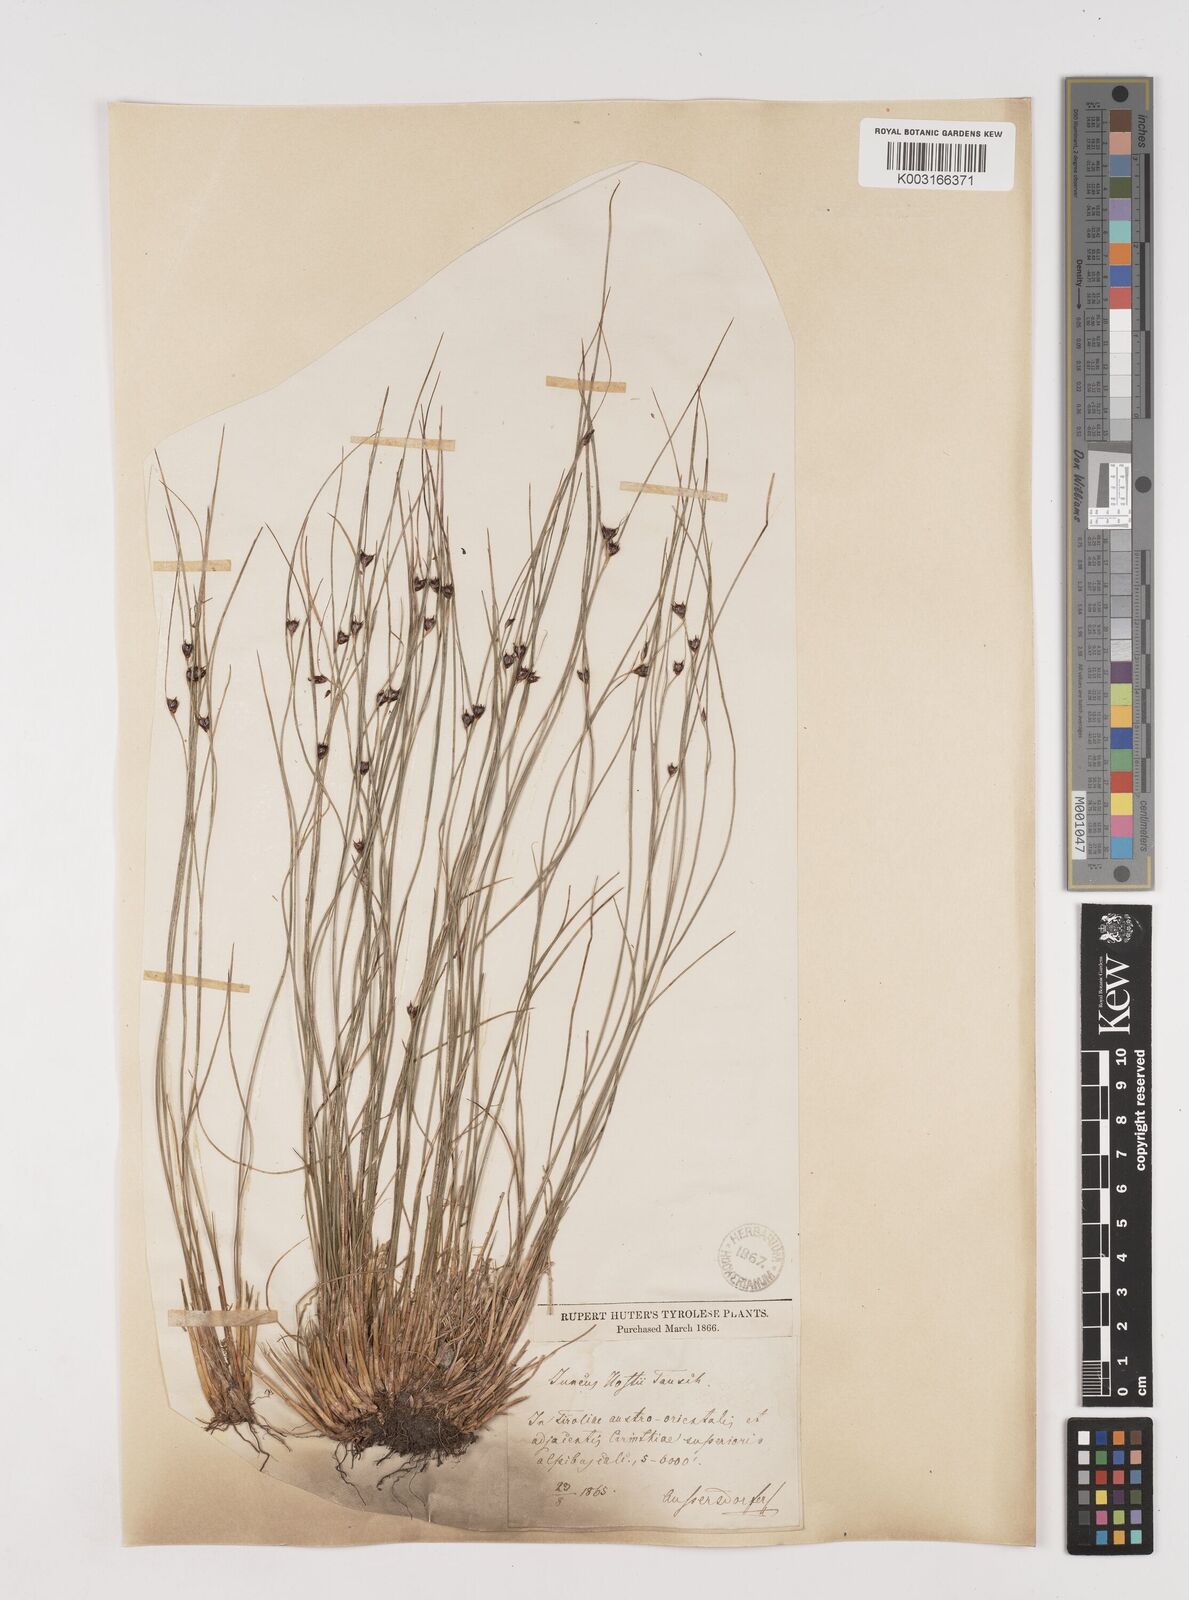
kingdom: Plantae
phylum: Tracheophyta
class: Liliopsida
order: Poales
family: Juncaceae
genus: Oreojuncus
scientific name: Oreojuncus trifidus
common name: Highland rush
